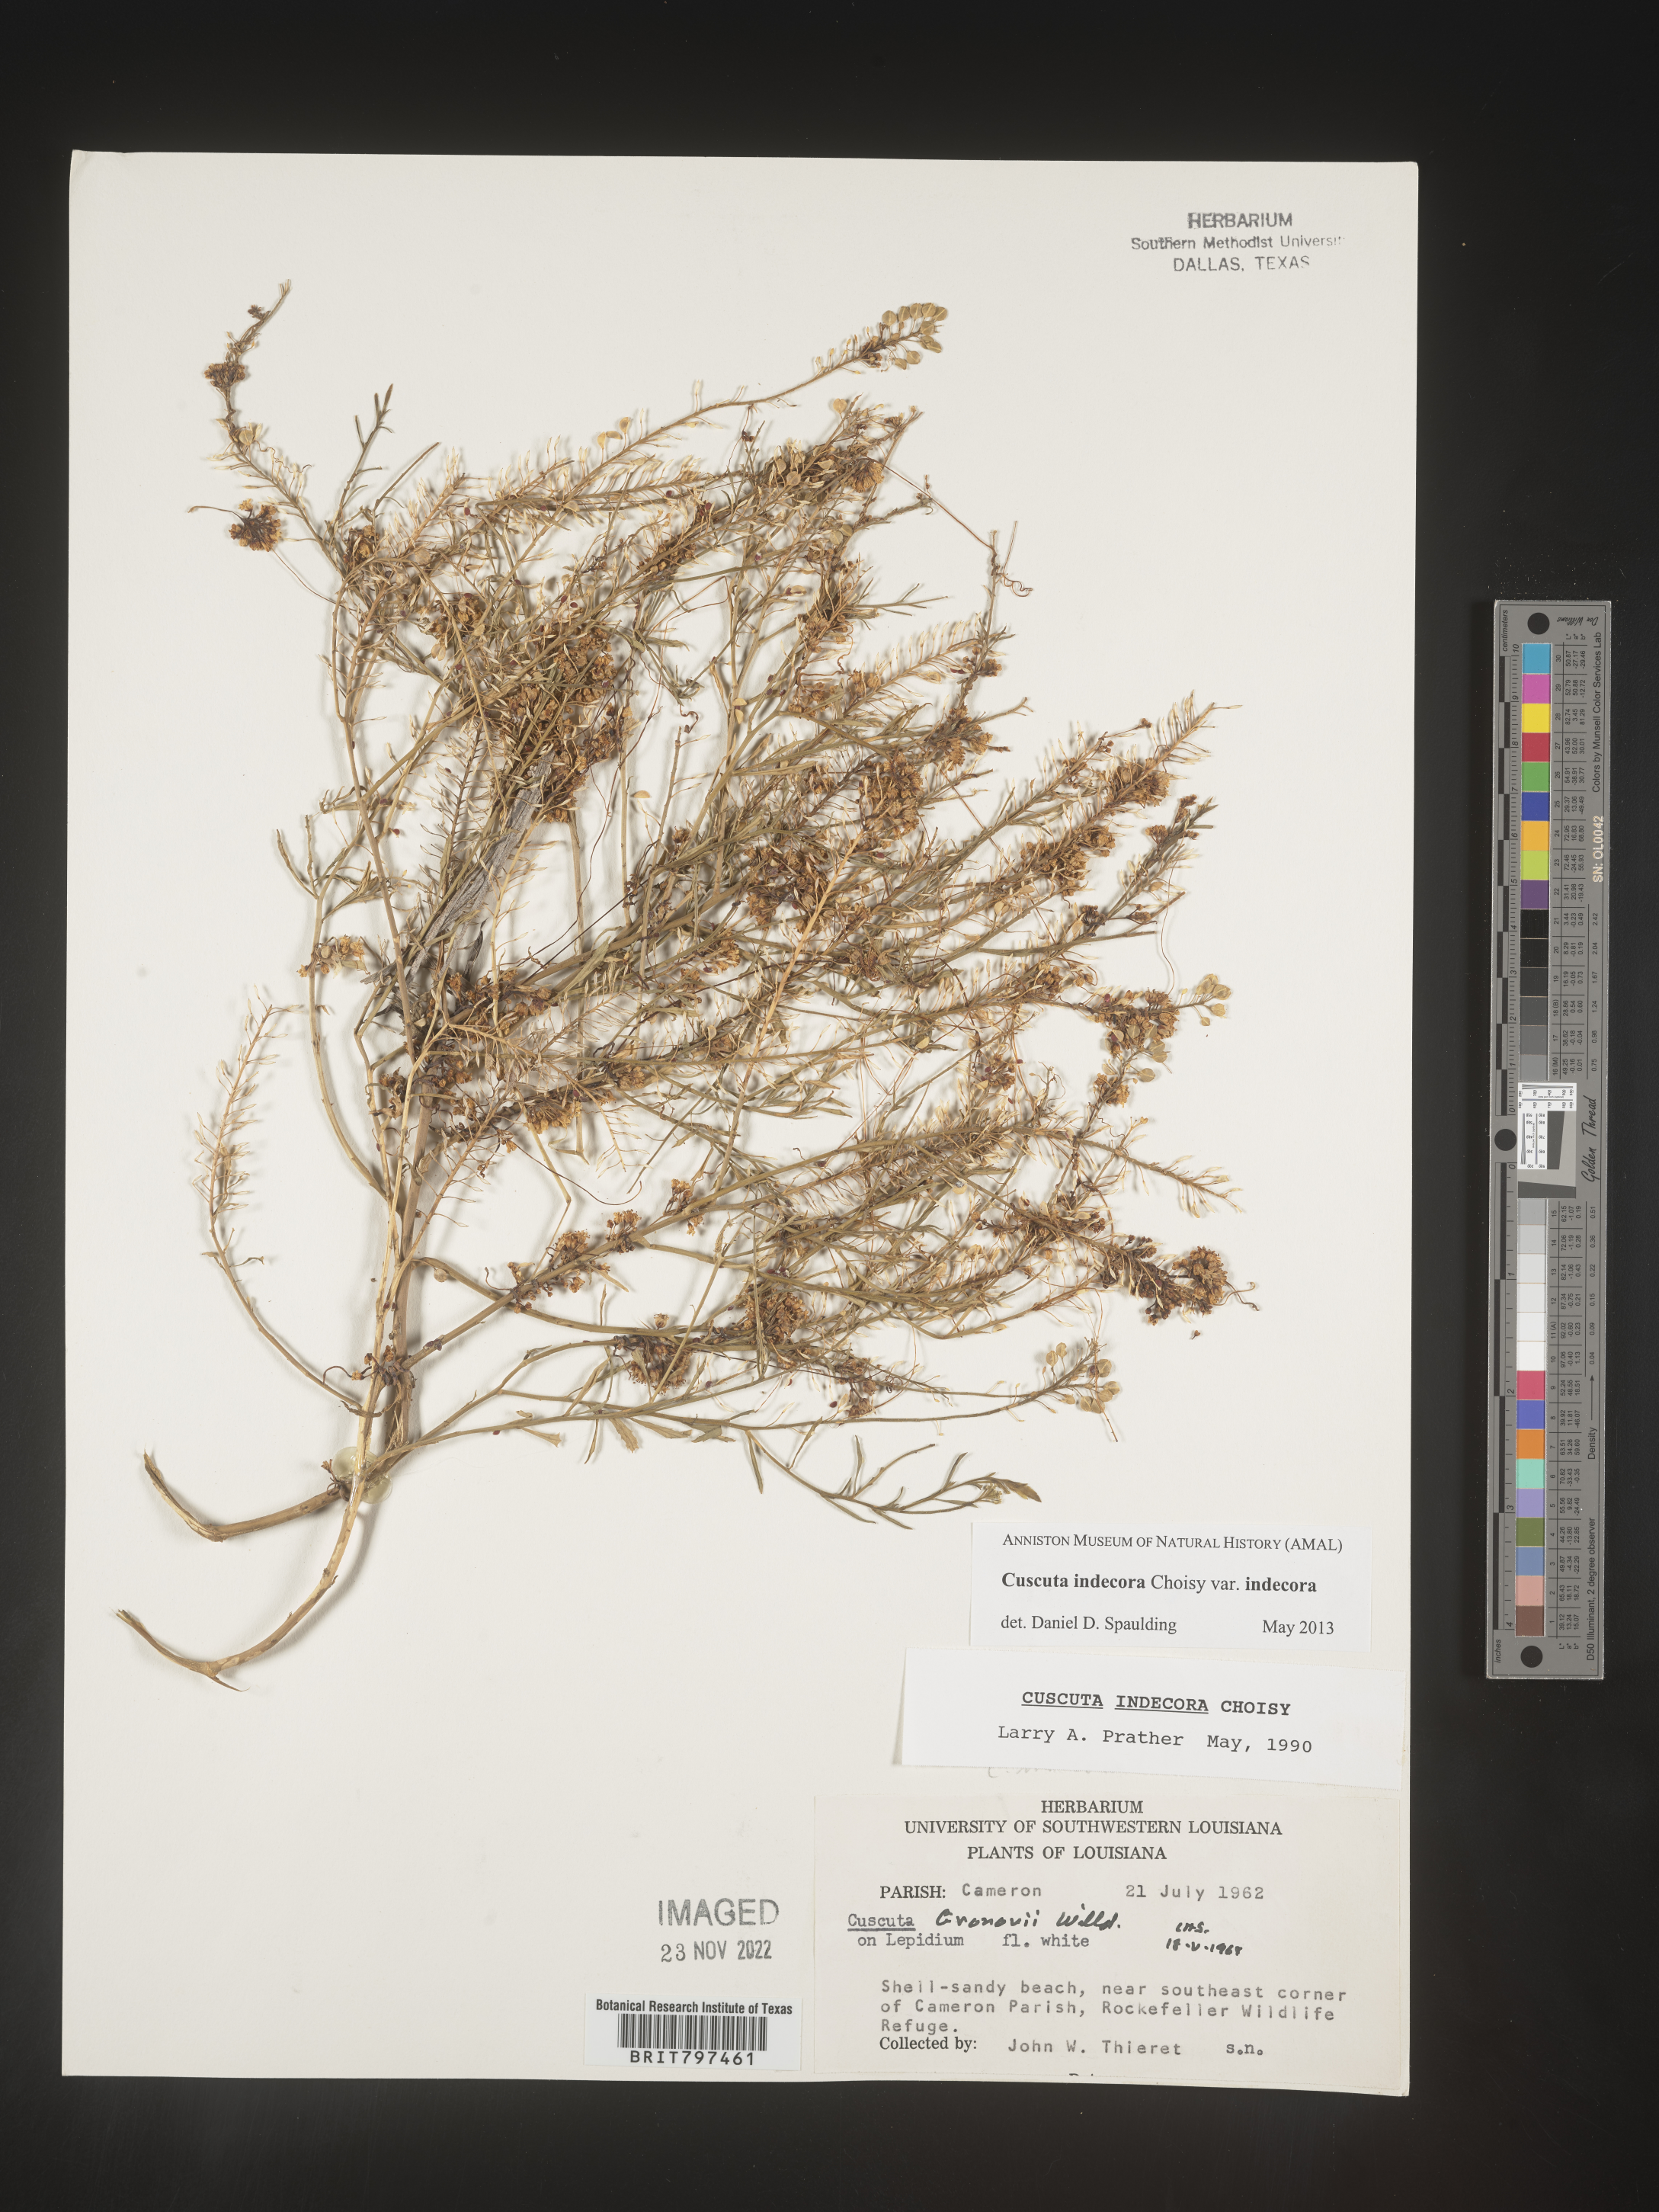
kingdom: Plantae
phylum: Tracheophyta
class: Magnoliopsida
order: Solanales
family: Convolvulaceae
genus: Cuscuta
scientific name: Cuscuta indecora
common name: Large-seed dodder
